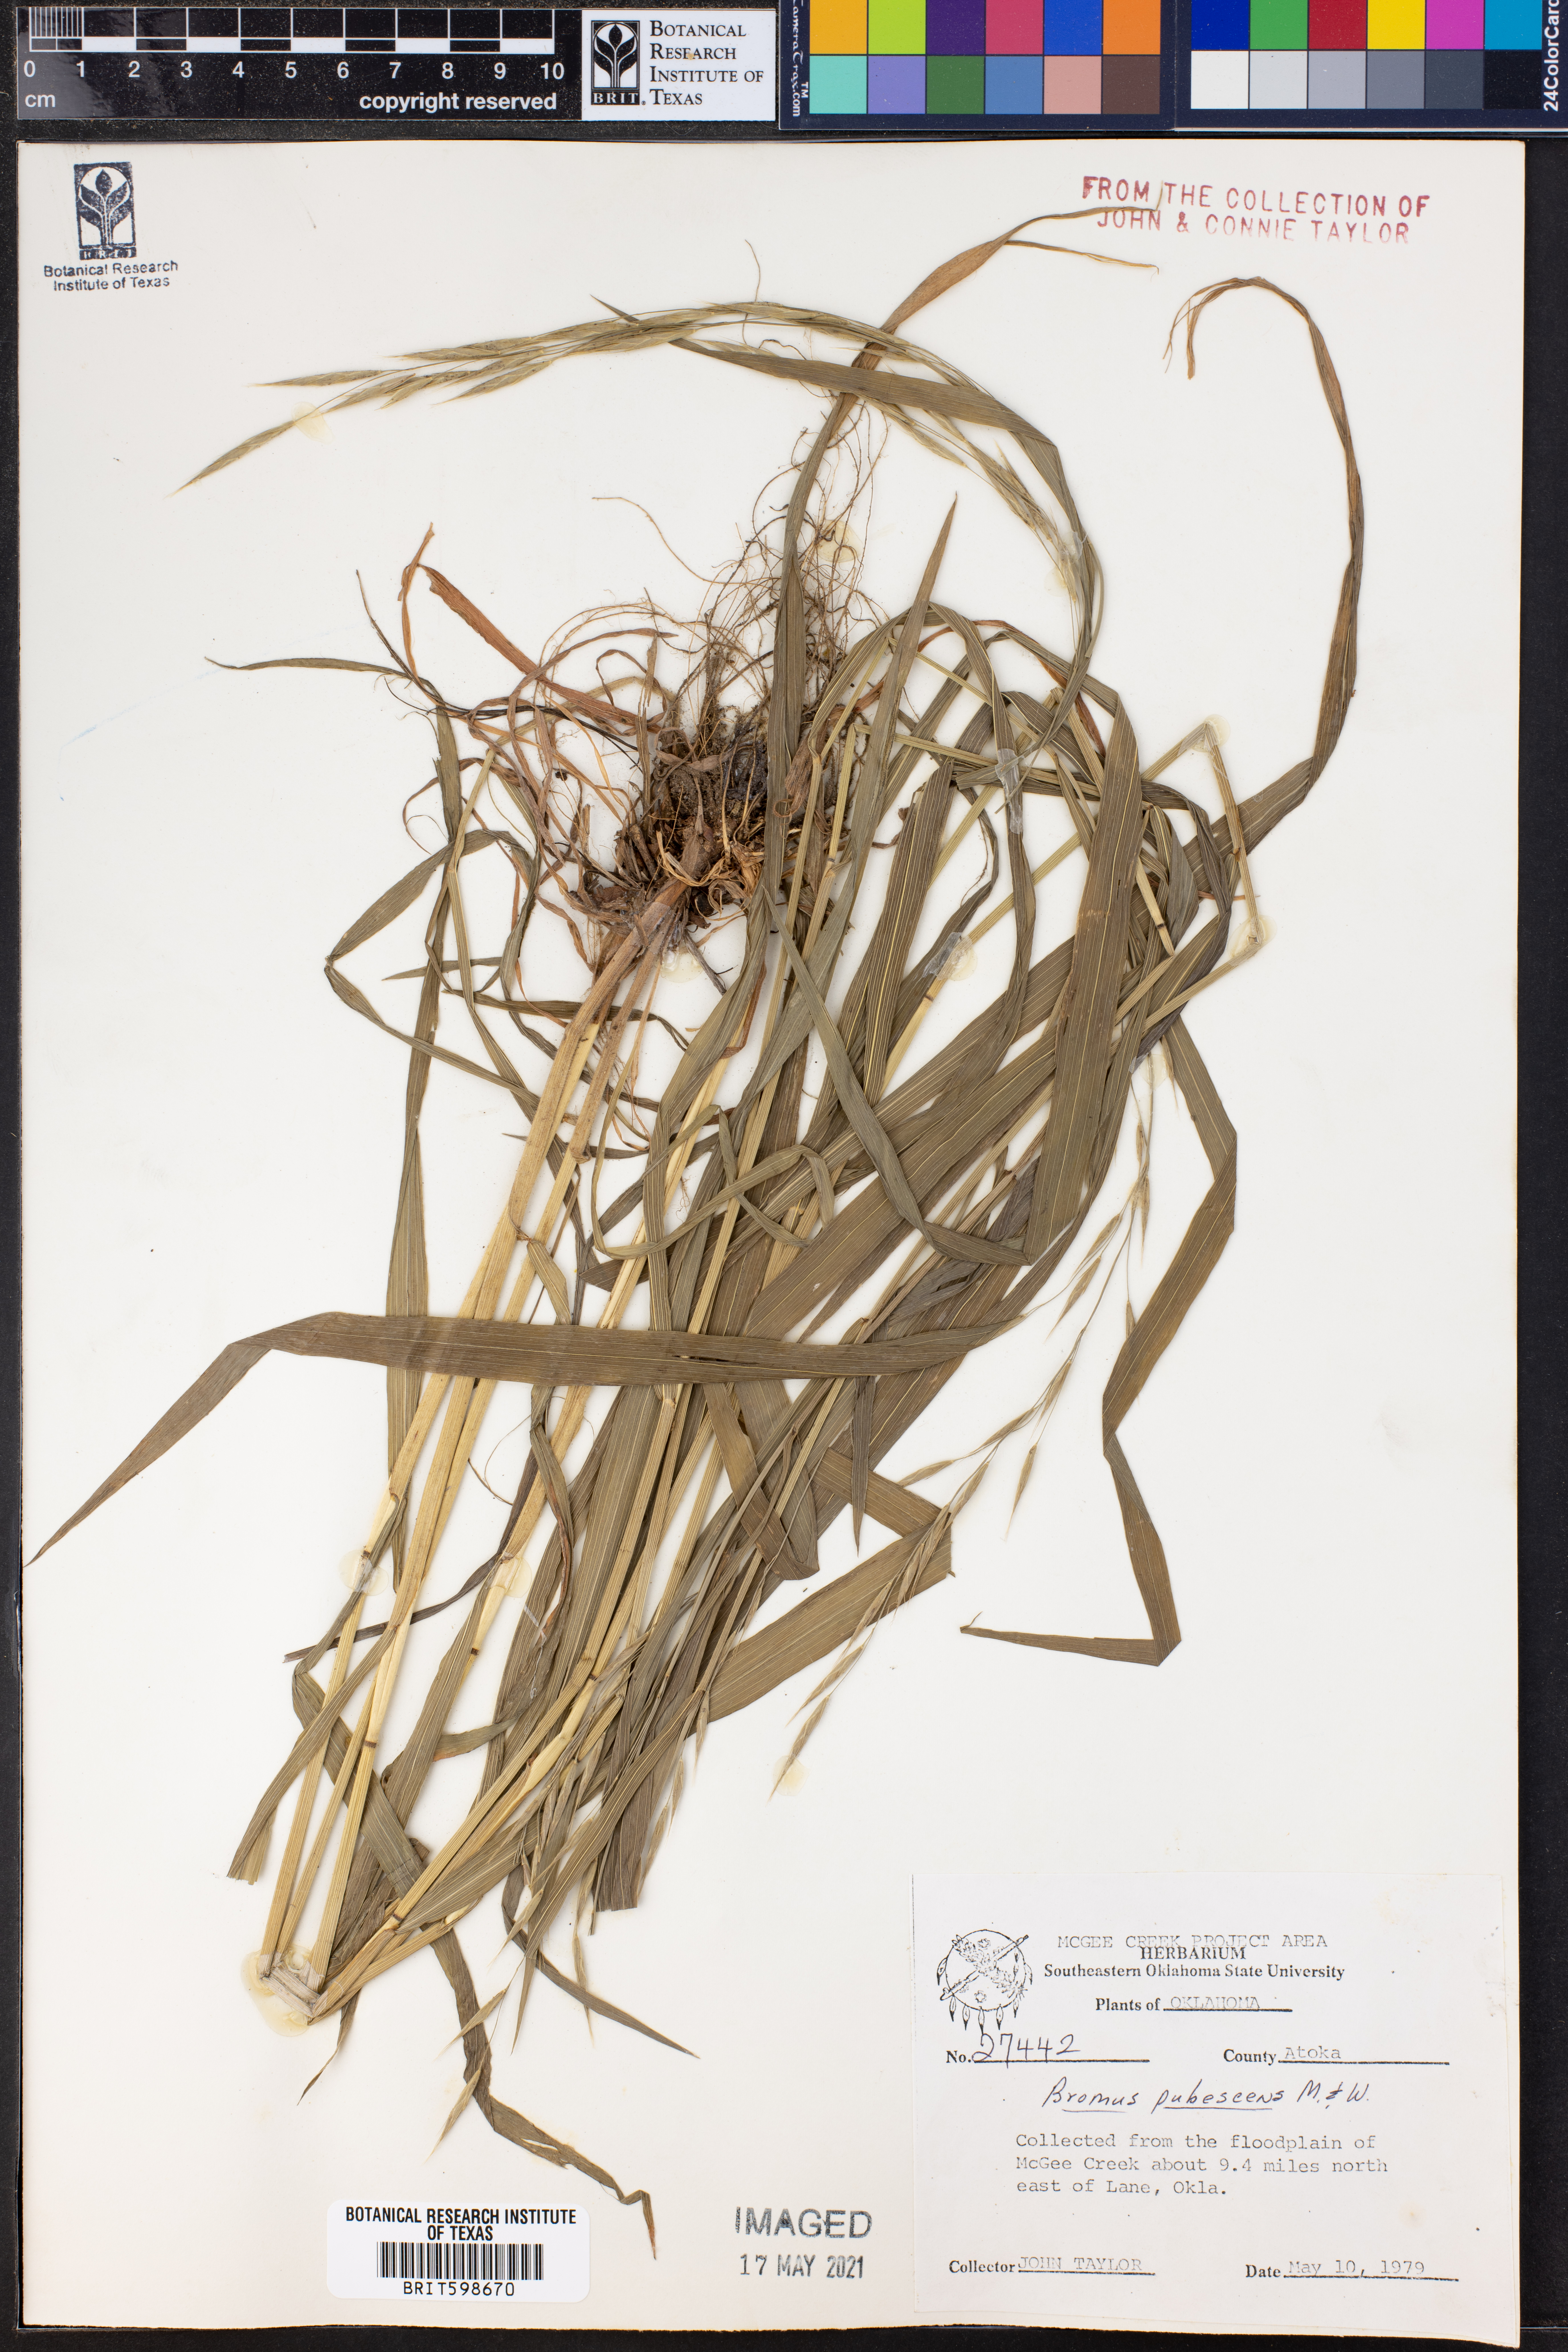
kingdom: Plantae
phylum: Tracheophyta
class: Liliopsida
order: Poales
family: Poaceae
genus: Bromus
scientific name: Bromus pubescens
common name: Hairy wood brome grass
